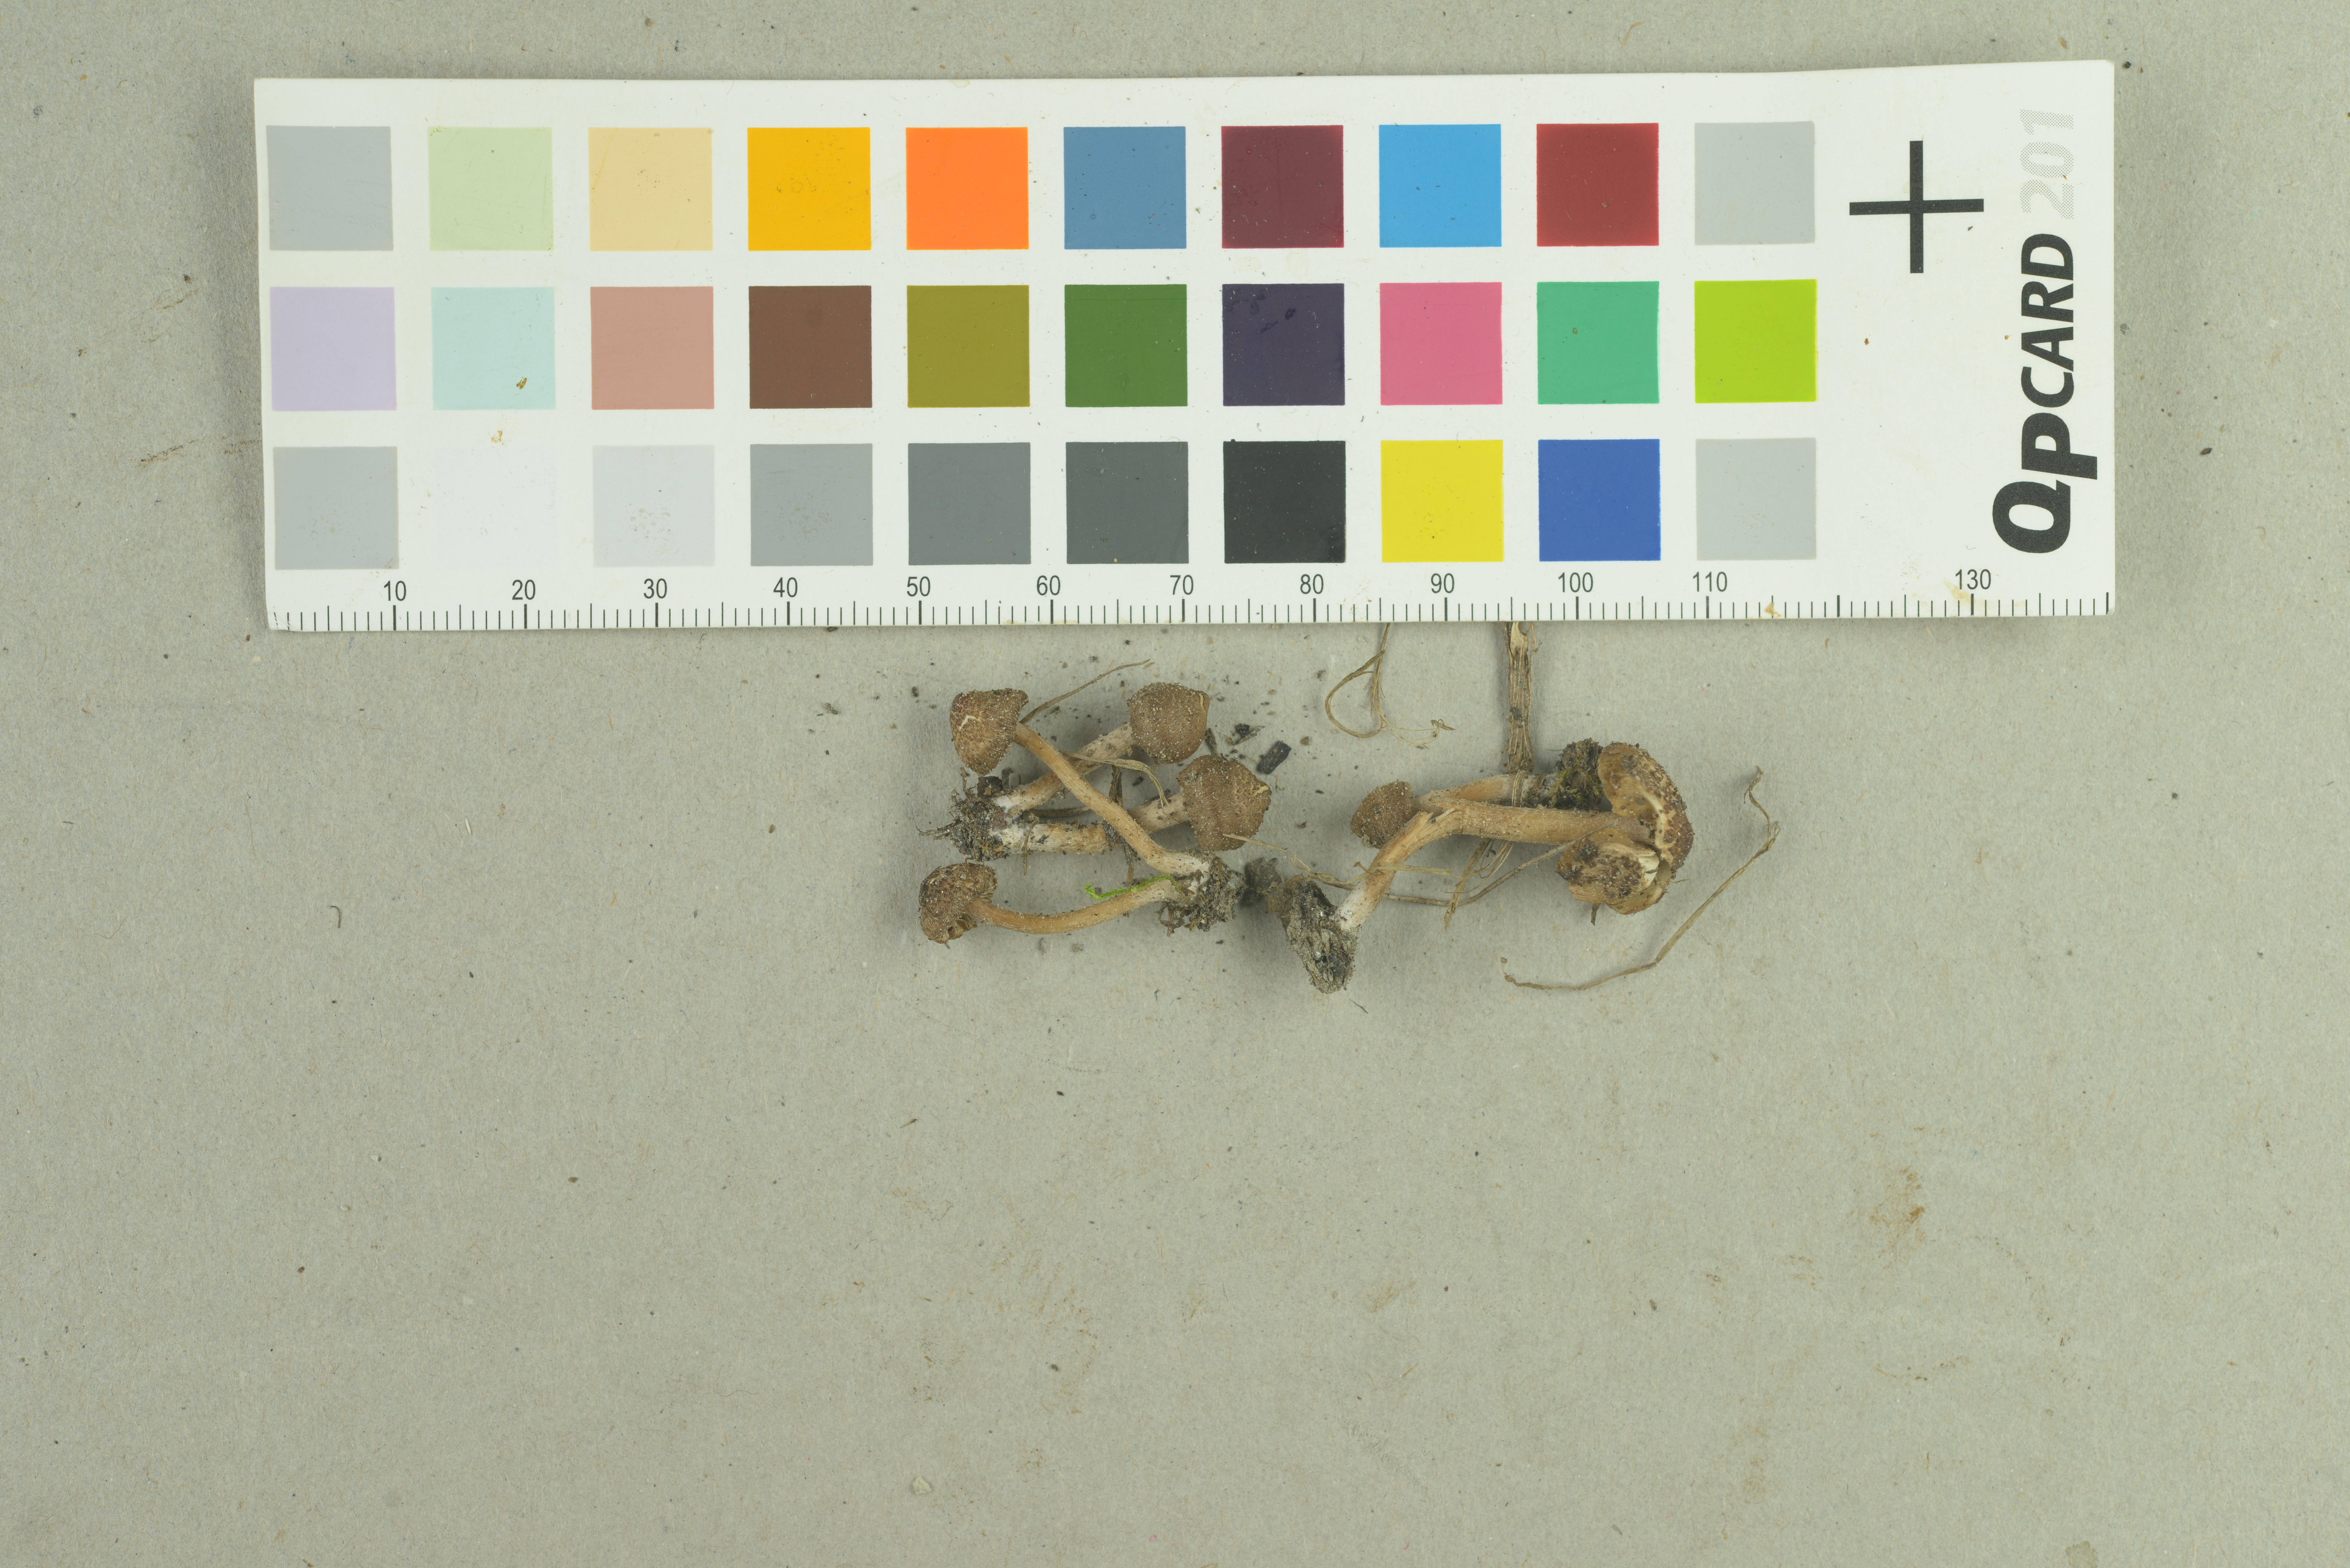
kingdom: Fungi
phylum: Basidiomycota
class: Agaricomycetes
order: Agaricales
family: Inocybaceae
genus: Inocybe
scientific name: Inocybe sitibunda
